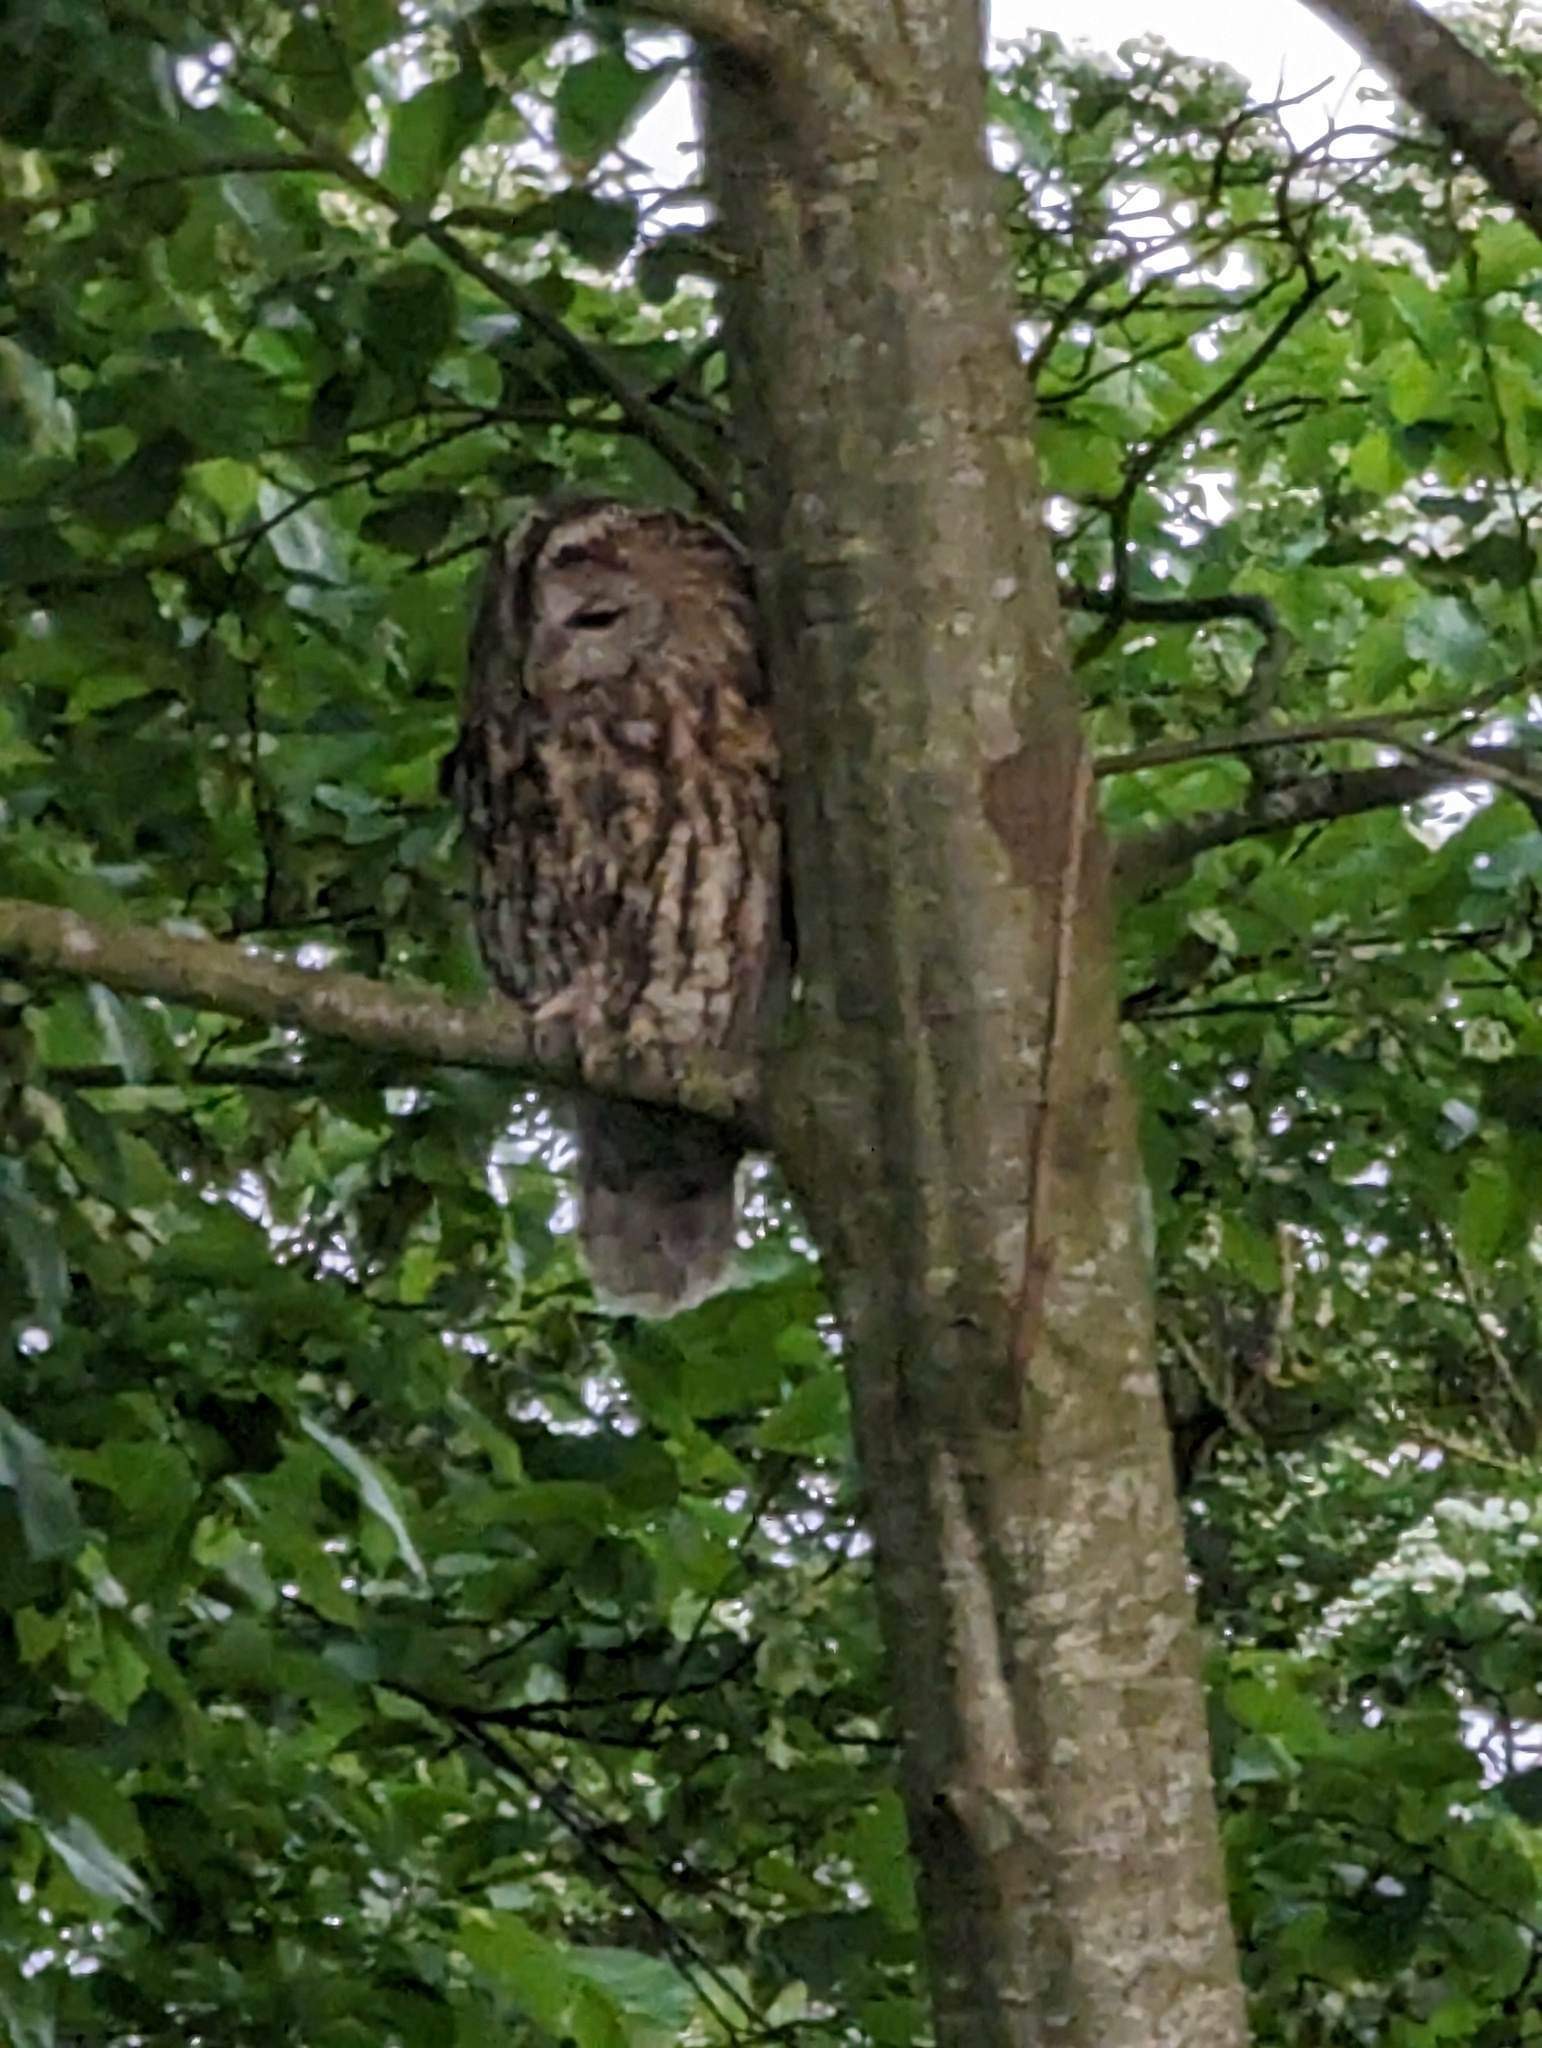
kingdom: Animalia
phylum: Chordata
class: Aves
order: Strigiformes
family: Strigidae
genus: Strix
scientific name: Strix aluco
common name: Natugle
